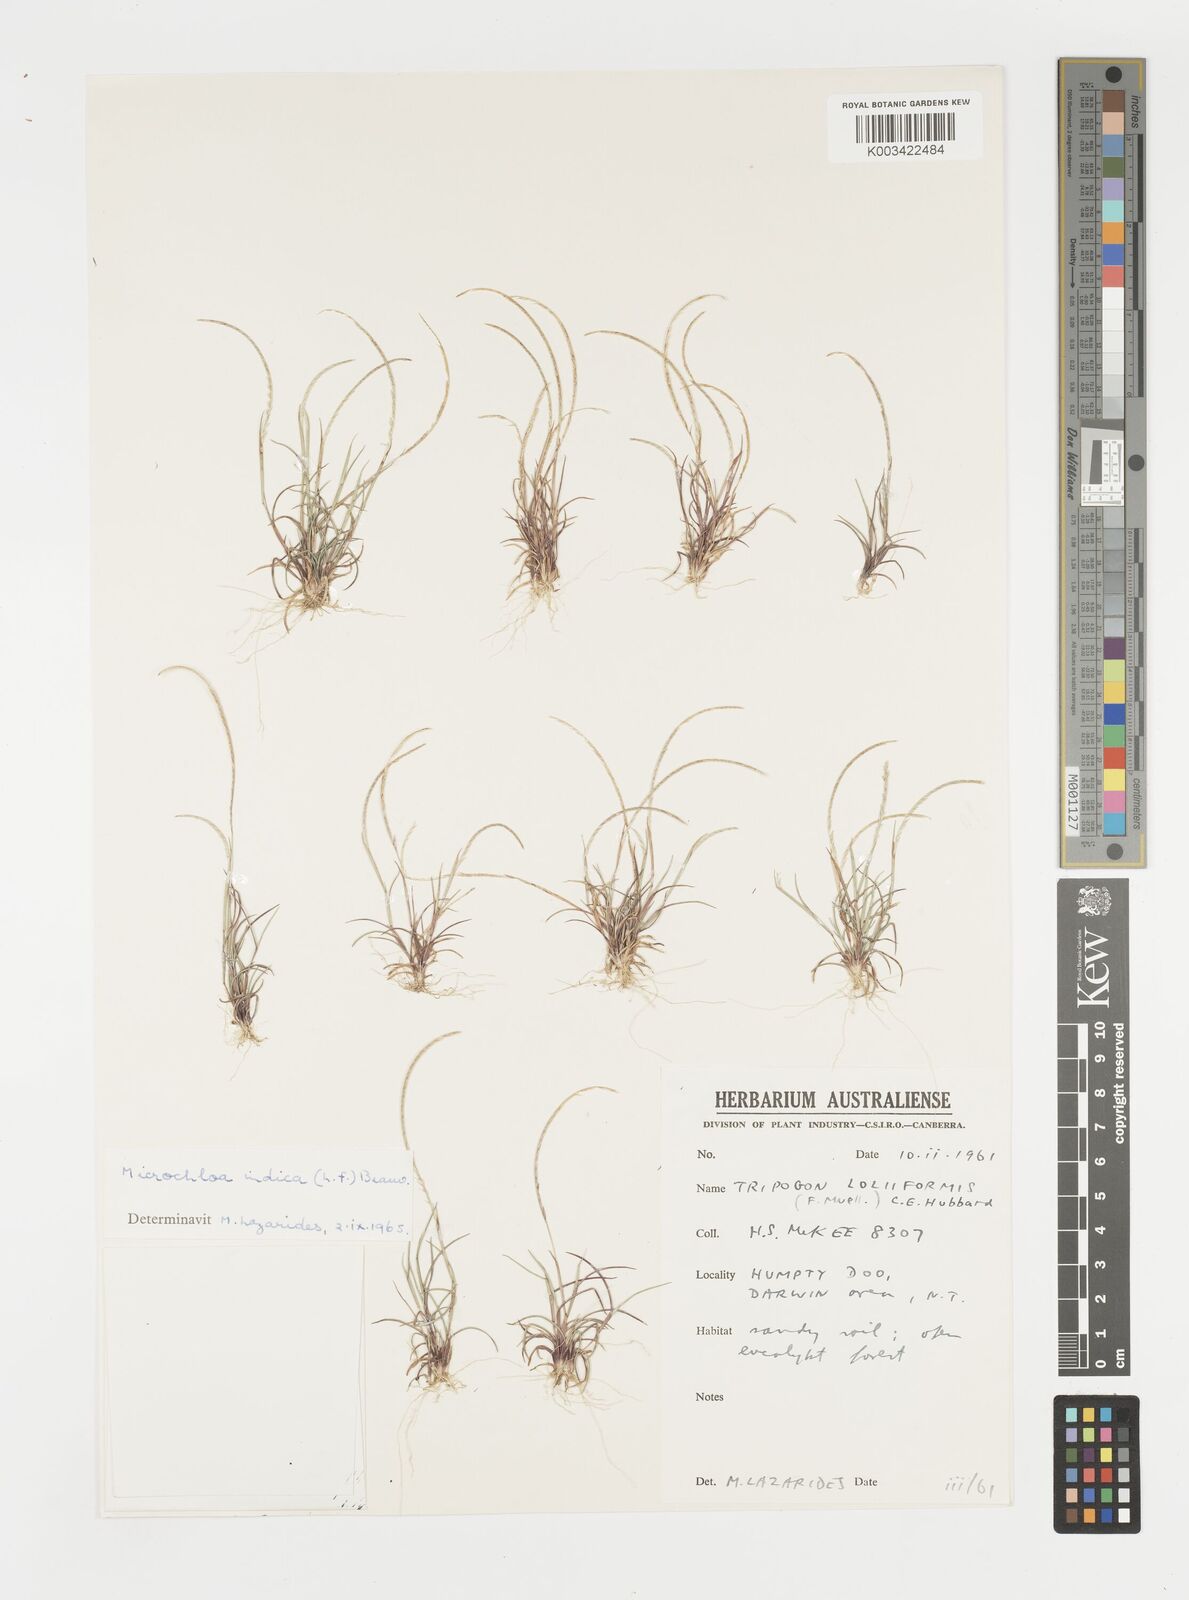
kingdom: Plantae
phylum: Tracheophyta
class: Liliopsida
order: Poales
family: Poaceae
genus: Microchloa
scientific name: Microchloa indica
